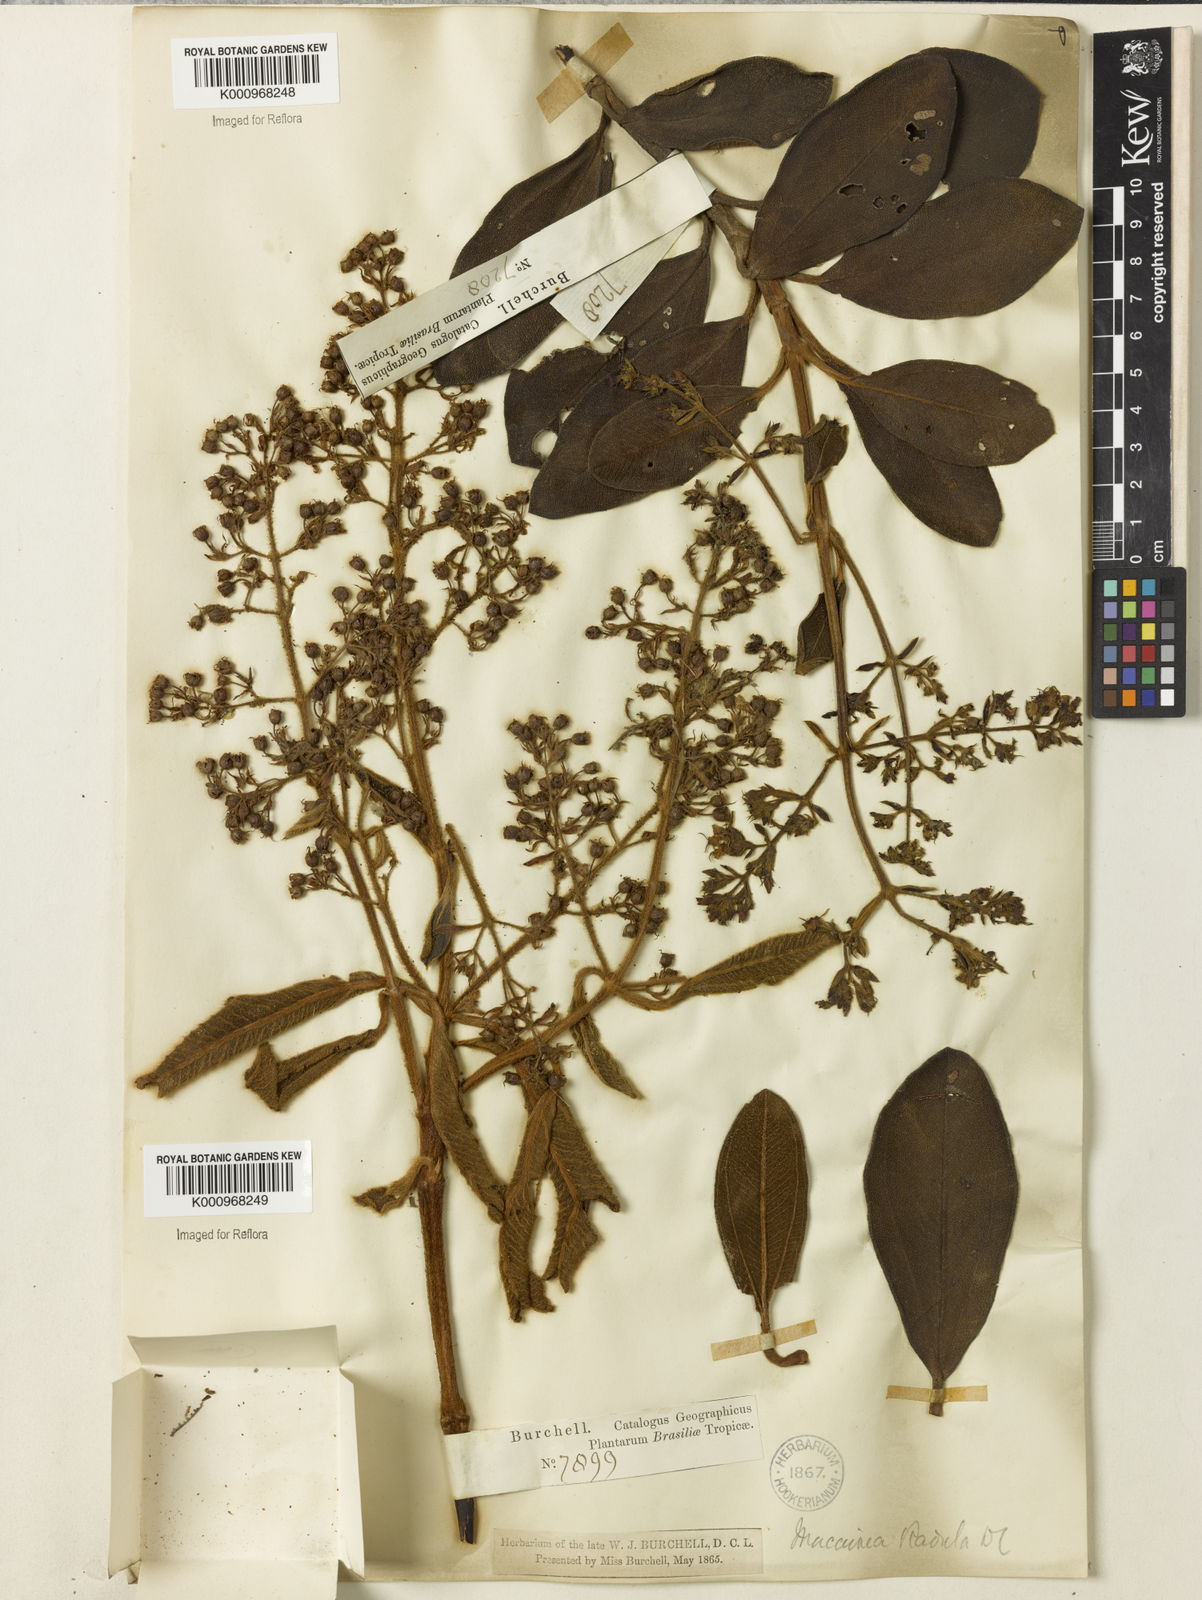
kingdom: Plantae
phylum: Tracheophyta
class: Magnoliopsida
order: Myrtales
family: Melastomataceae
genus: Macairea
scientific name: Macairea radula
